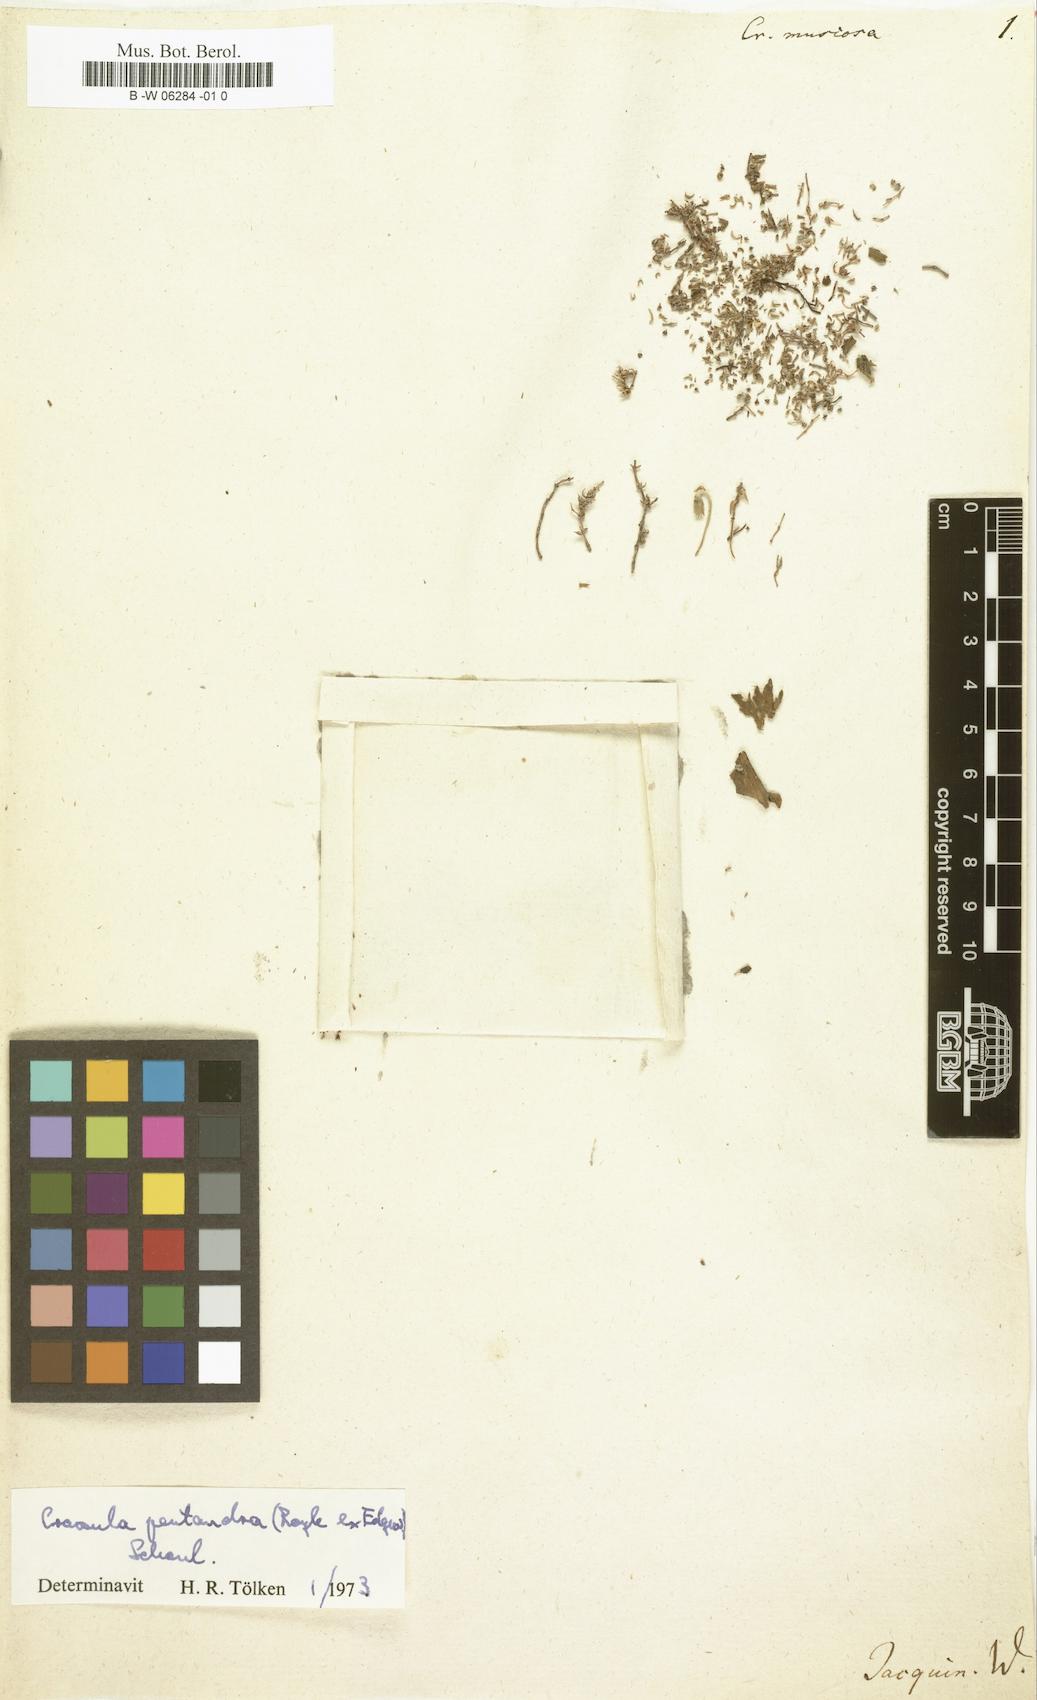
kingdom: Plantae
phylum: Tracheophyta
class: Magnoliopsida
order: Saxifragales
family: Crassulaceae
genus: Crassula
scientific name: Crassula muscosa
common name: Toy-cypress
